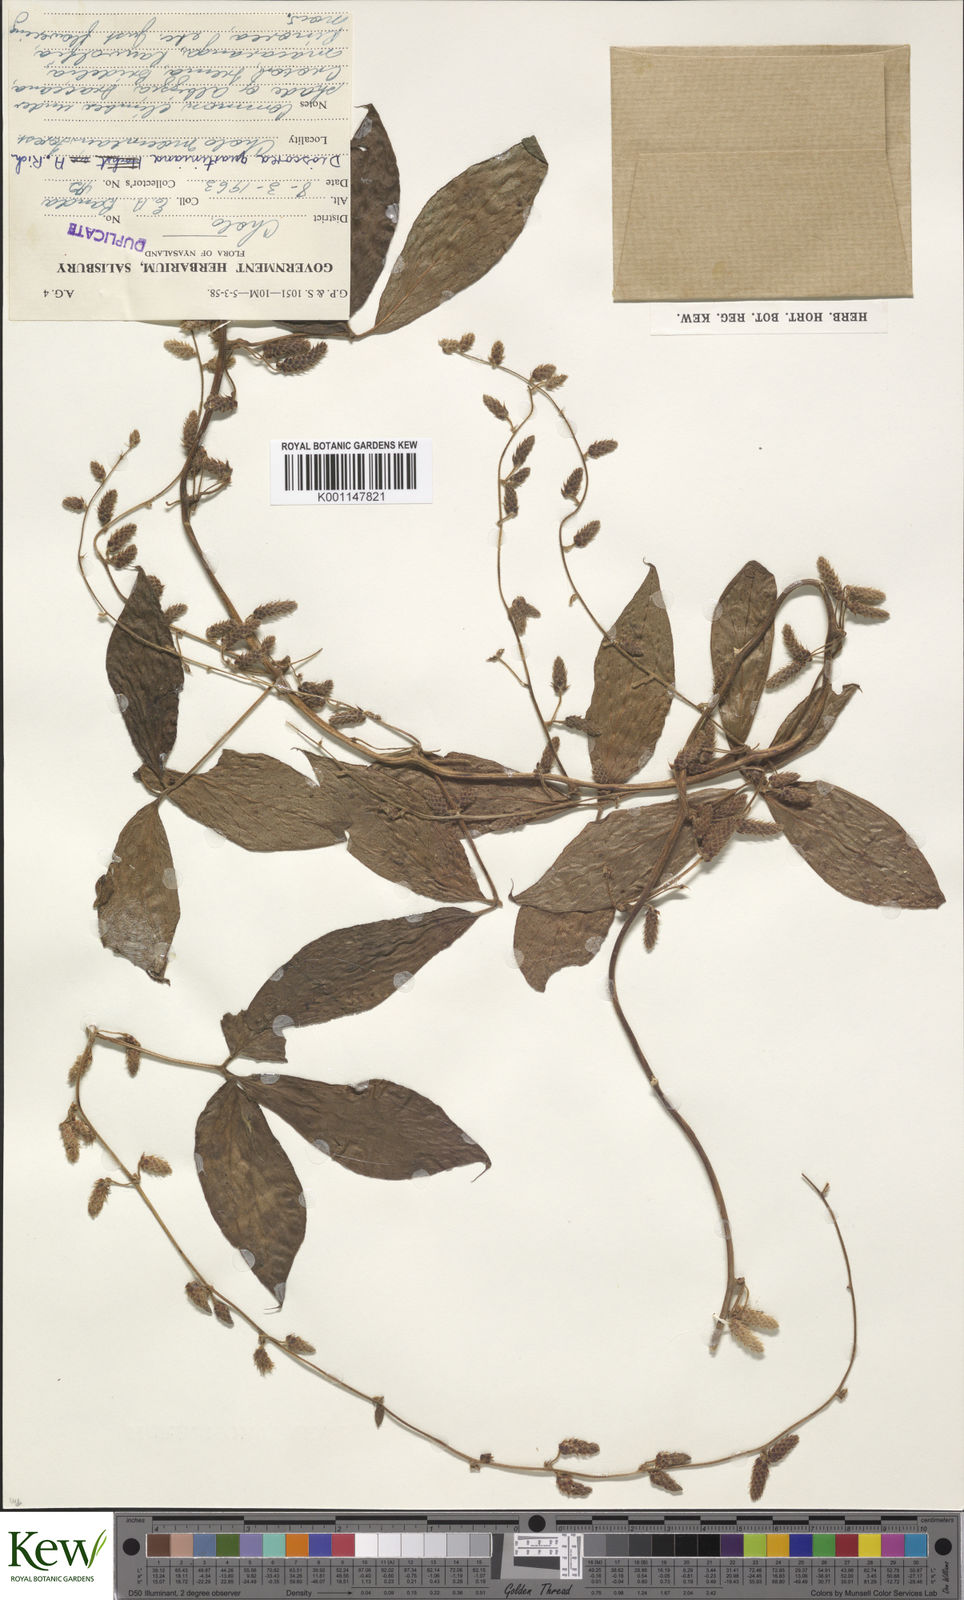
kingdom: Plantae
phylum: Tracheophyta
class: Liliopsida
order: Dioscoreales
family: Dioscoreaceae
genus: Dioscorea
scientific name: Dioscorea quartiniana
